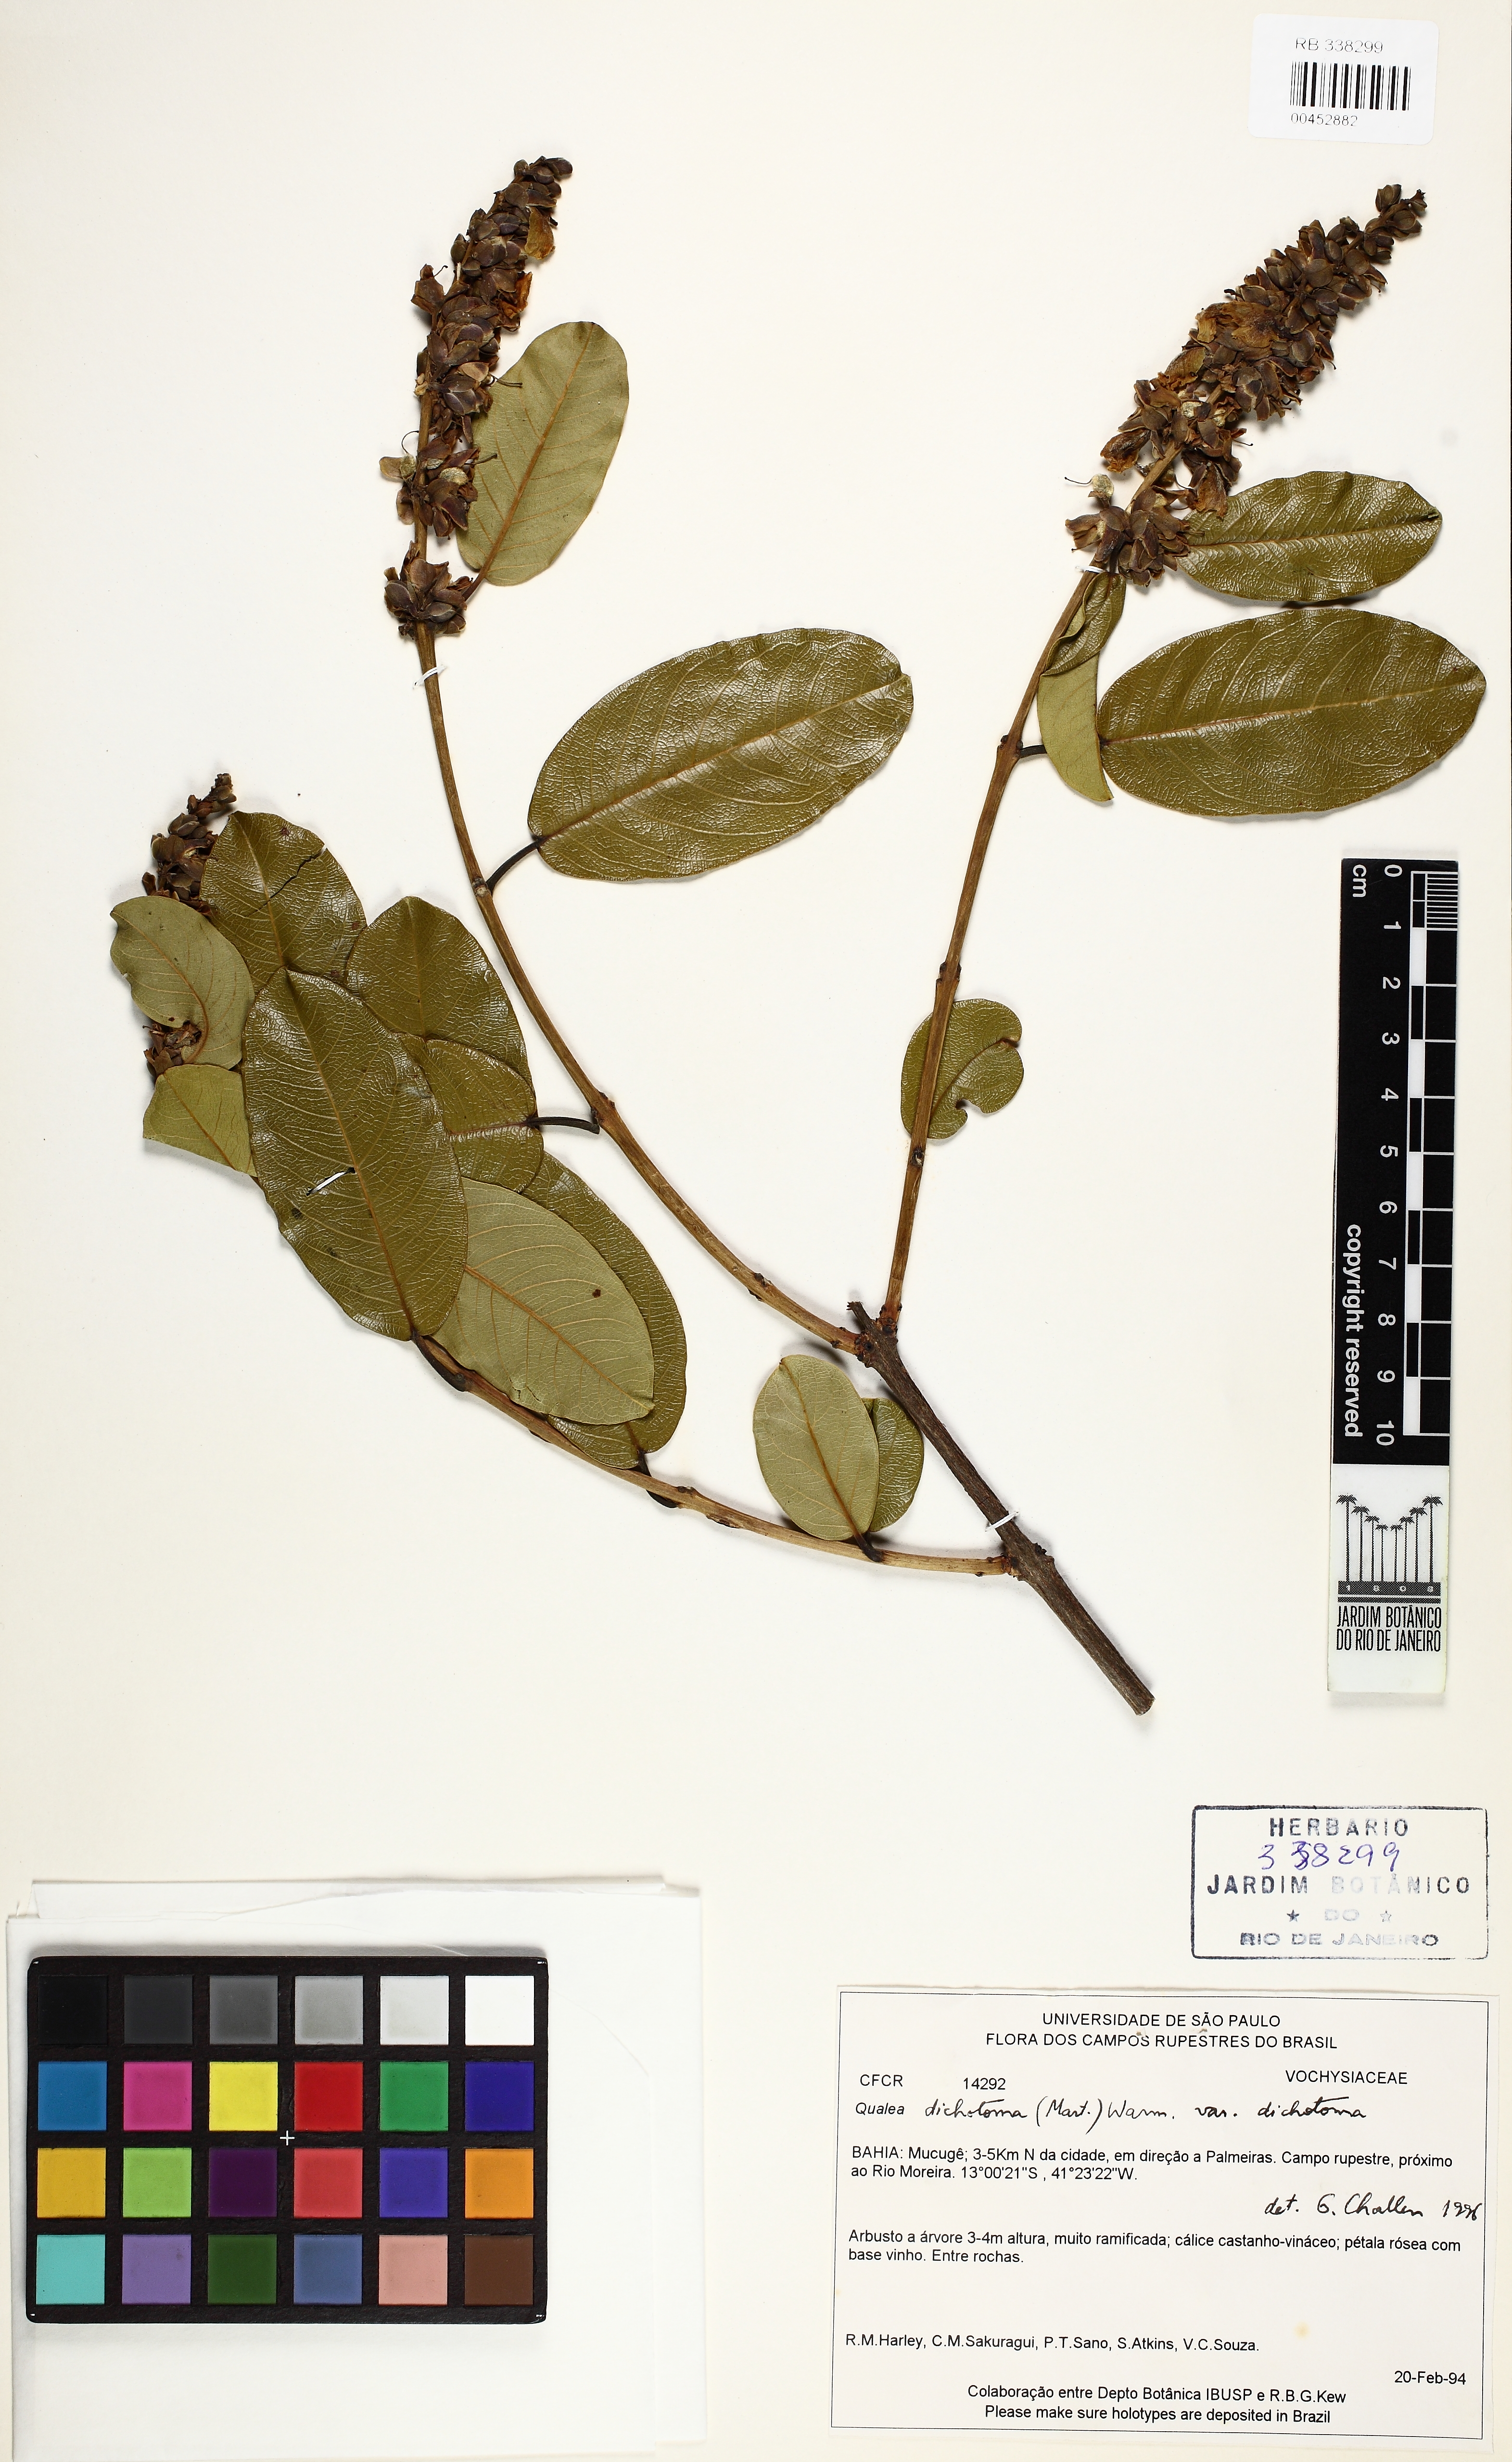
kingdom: Plantae
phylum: Tracheophyta
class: Magnoliopsida
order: Myrtales
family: Vochysiaceae
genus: Qualea
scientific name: Qualea cordata
